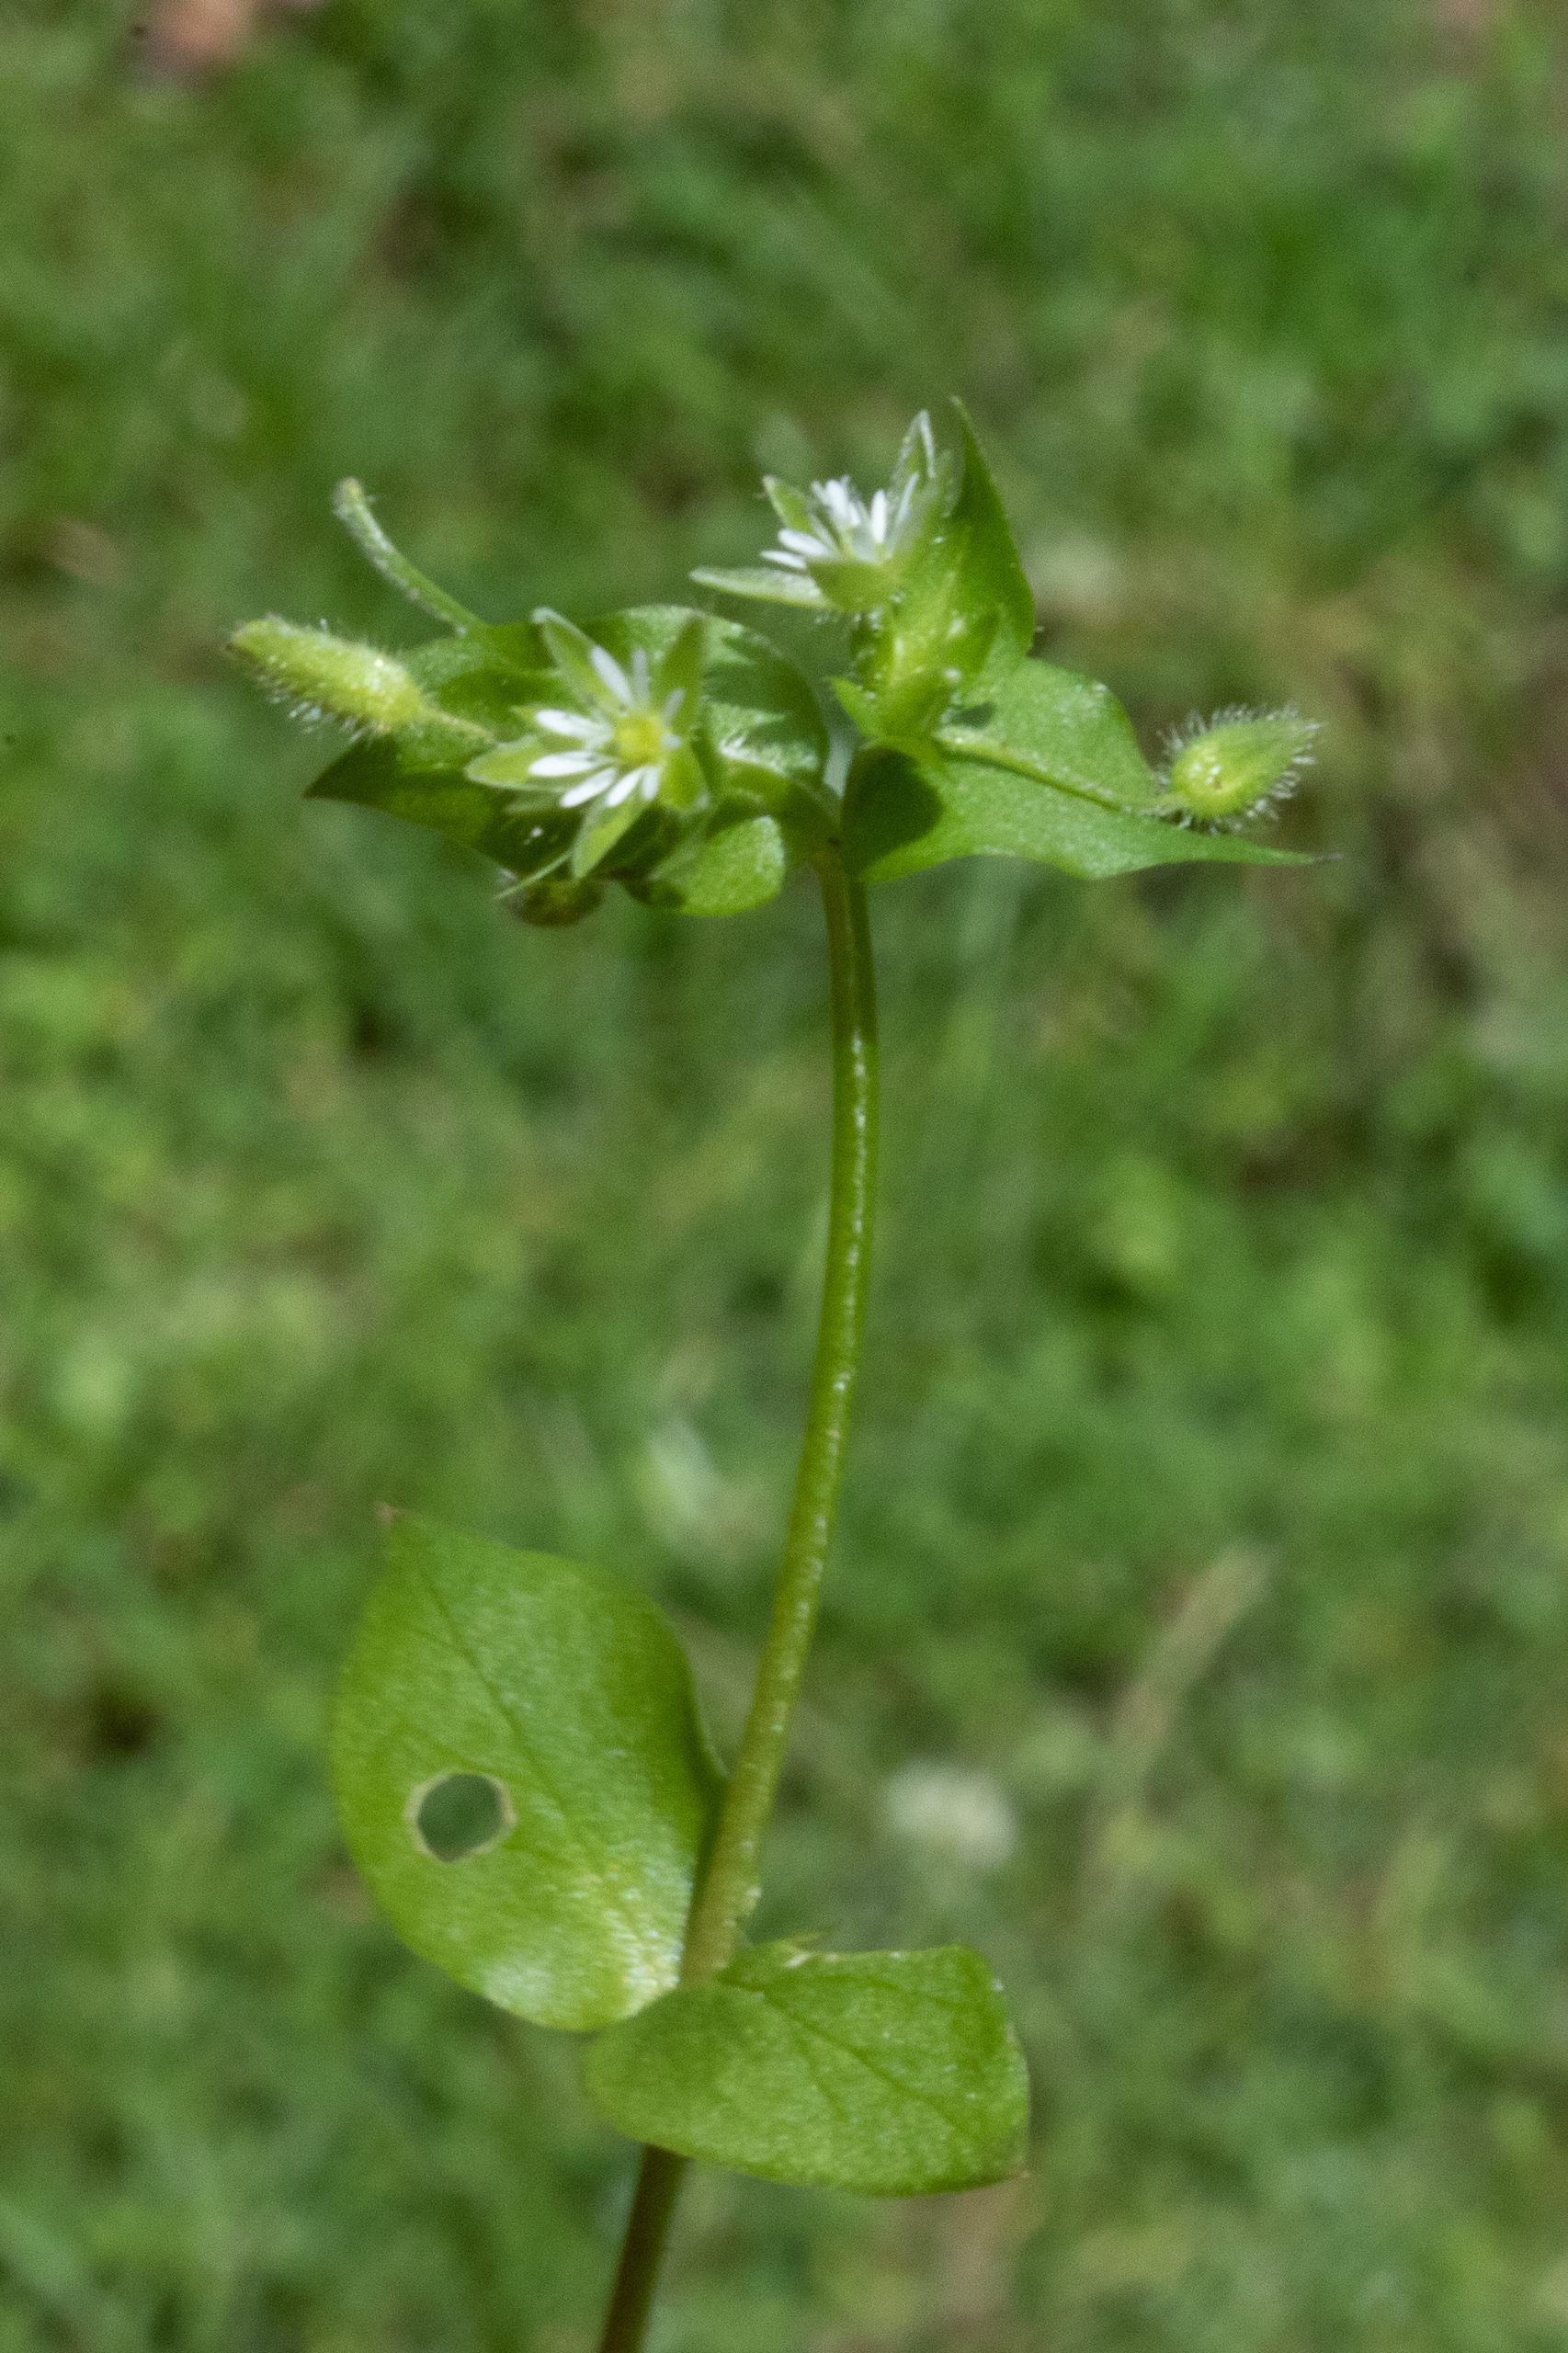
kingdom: Plantae
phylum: Tracheophyta
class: Magnoliopsida
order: Caryophyllales
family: Caryophyllaceae
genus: Stellaria
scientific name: Stellaria media
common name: Almindelig fuglegræs
